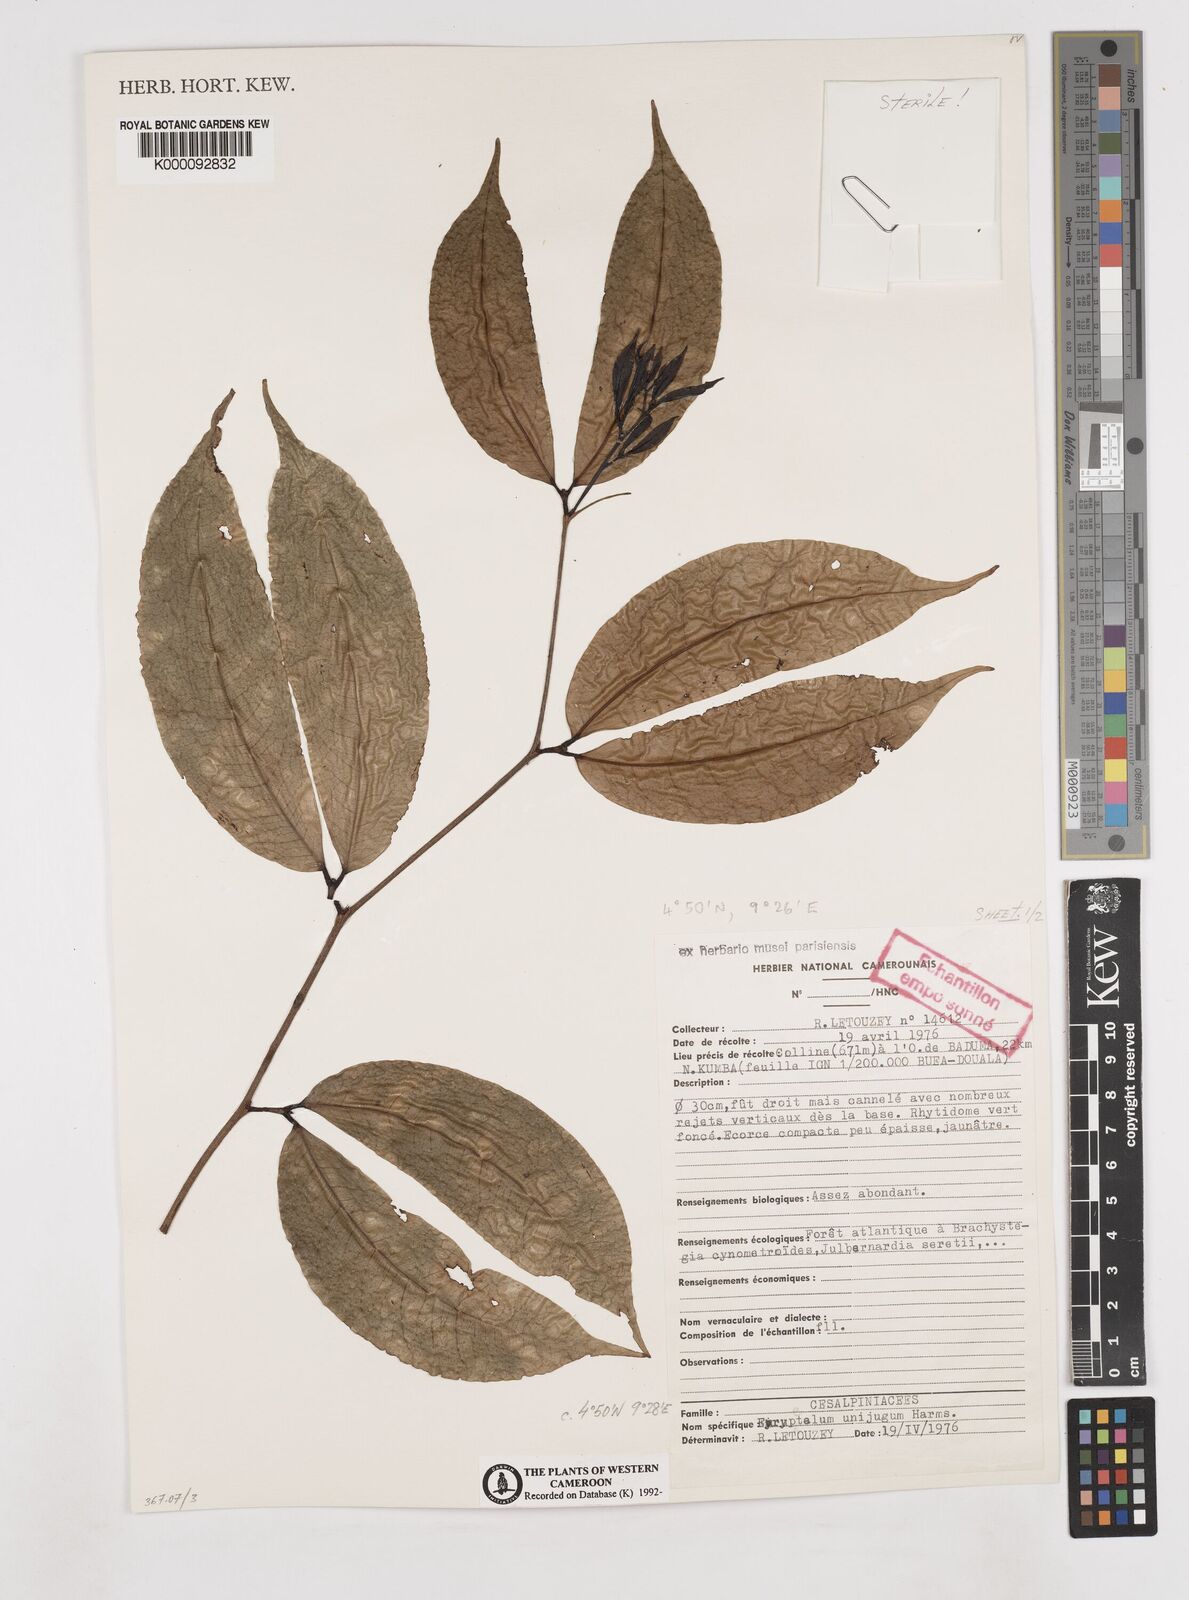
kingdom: Plantae
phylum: Tracheophyta
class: Magnoliopsida
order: Fabales
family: Fabaceae
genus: Eurypetalum
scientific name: Eurypetalum unijugum
